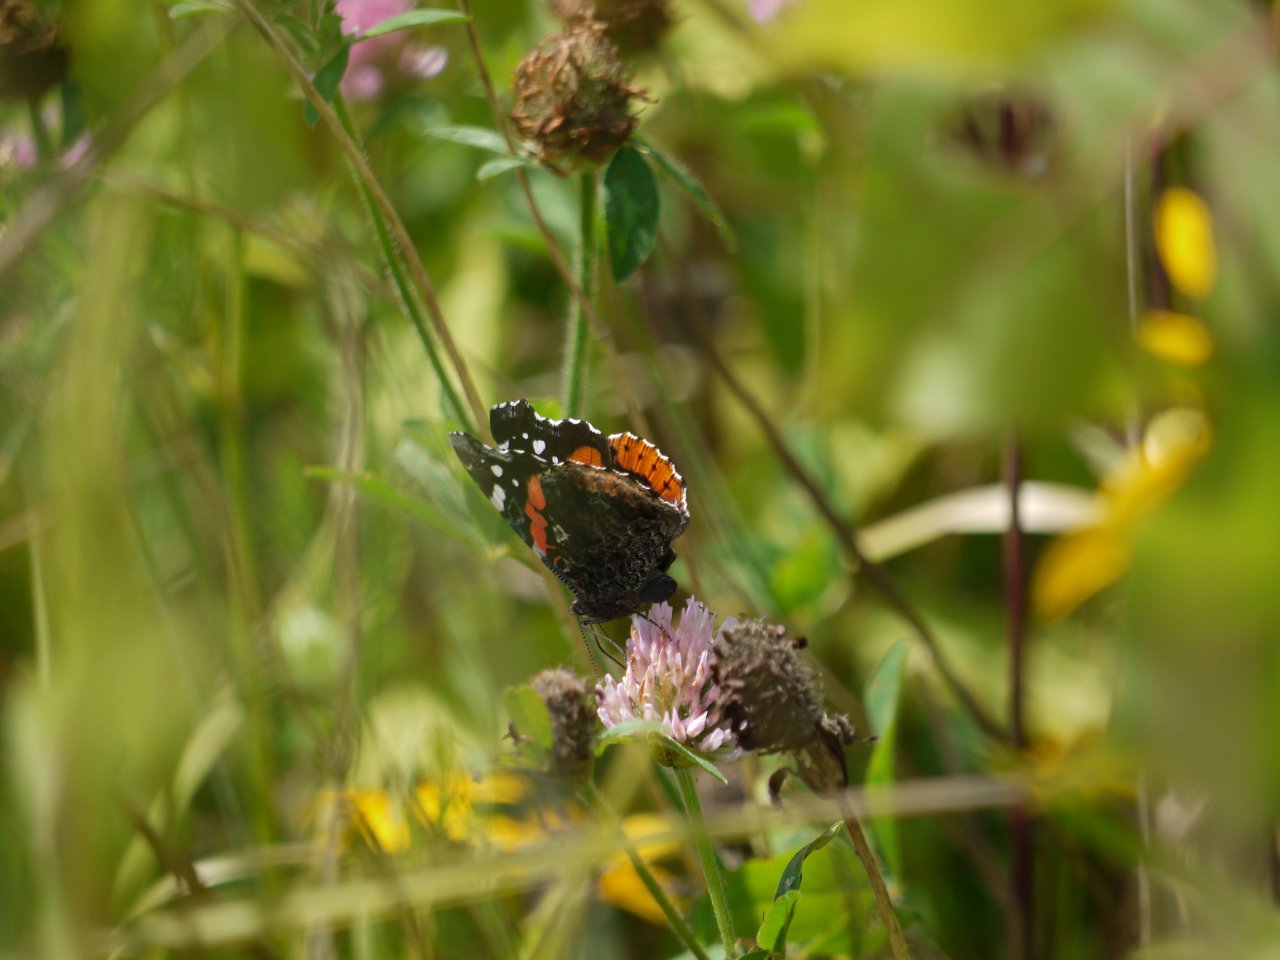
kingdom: Animalia
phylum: Arthropoda
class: Insecta
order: Lepidoptera
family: Nymphalidae
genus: Vanessa
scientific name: Vanessa atalanta
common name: Red Admiral
